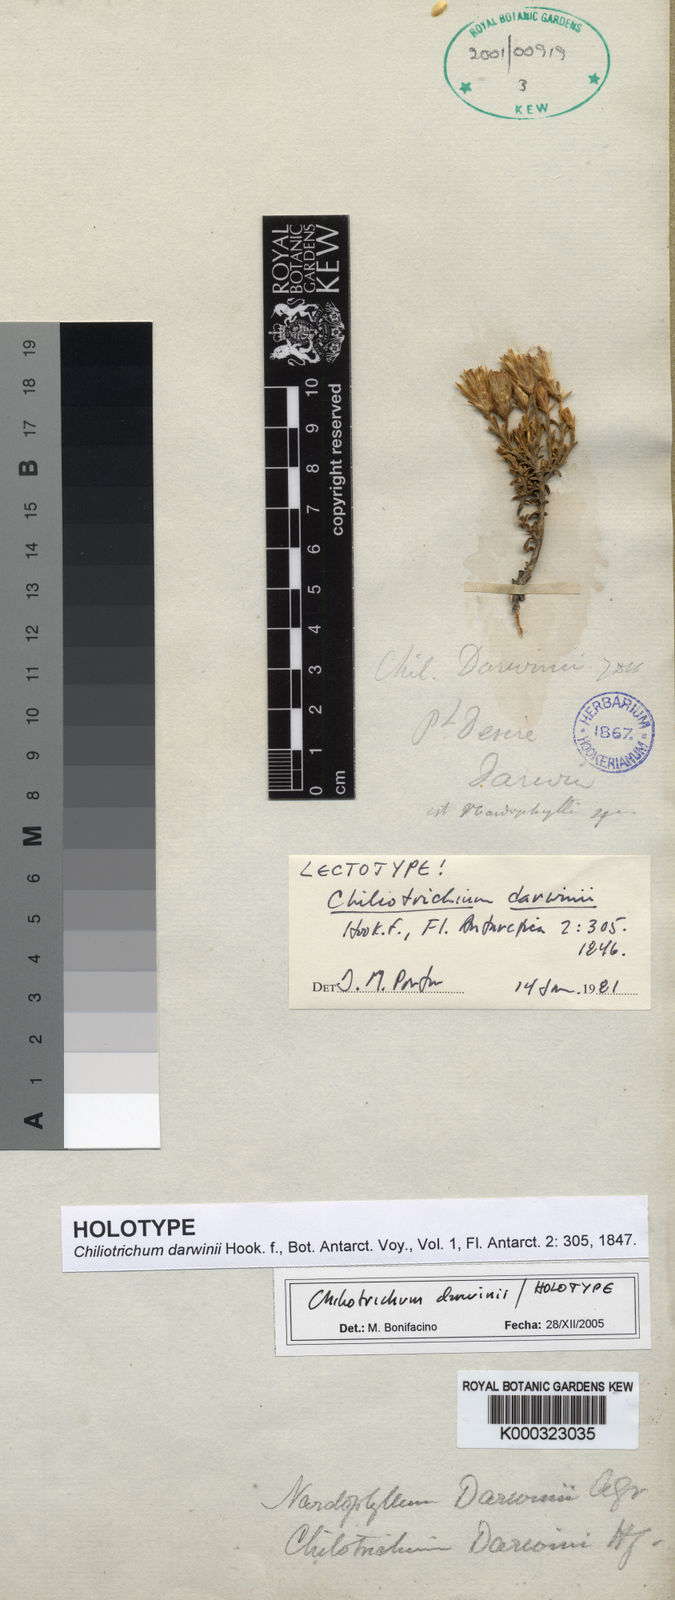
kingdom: Plantae
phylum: Tracheophyta
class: Magnoliopsida
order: Asterales
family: Asteraceae
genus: Nardophyllum
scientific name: Nardophyllum bryoides
